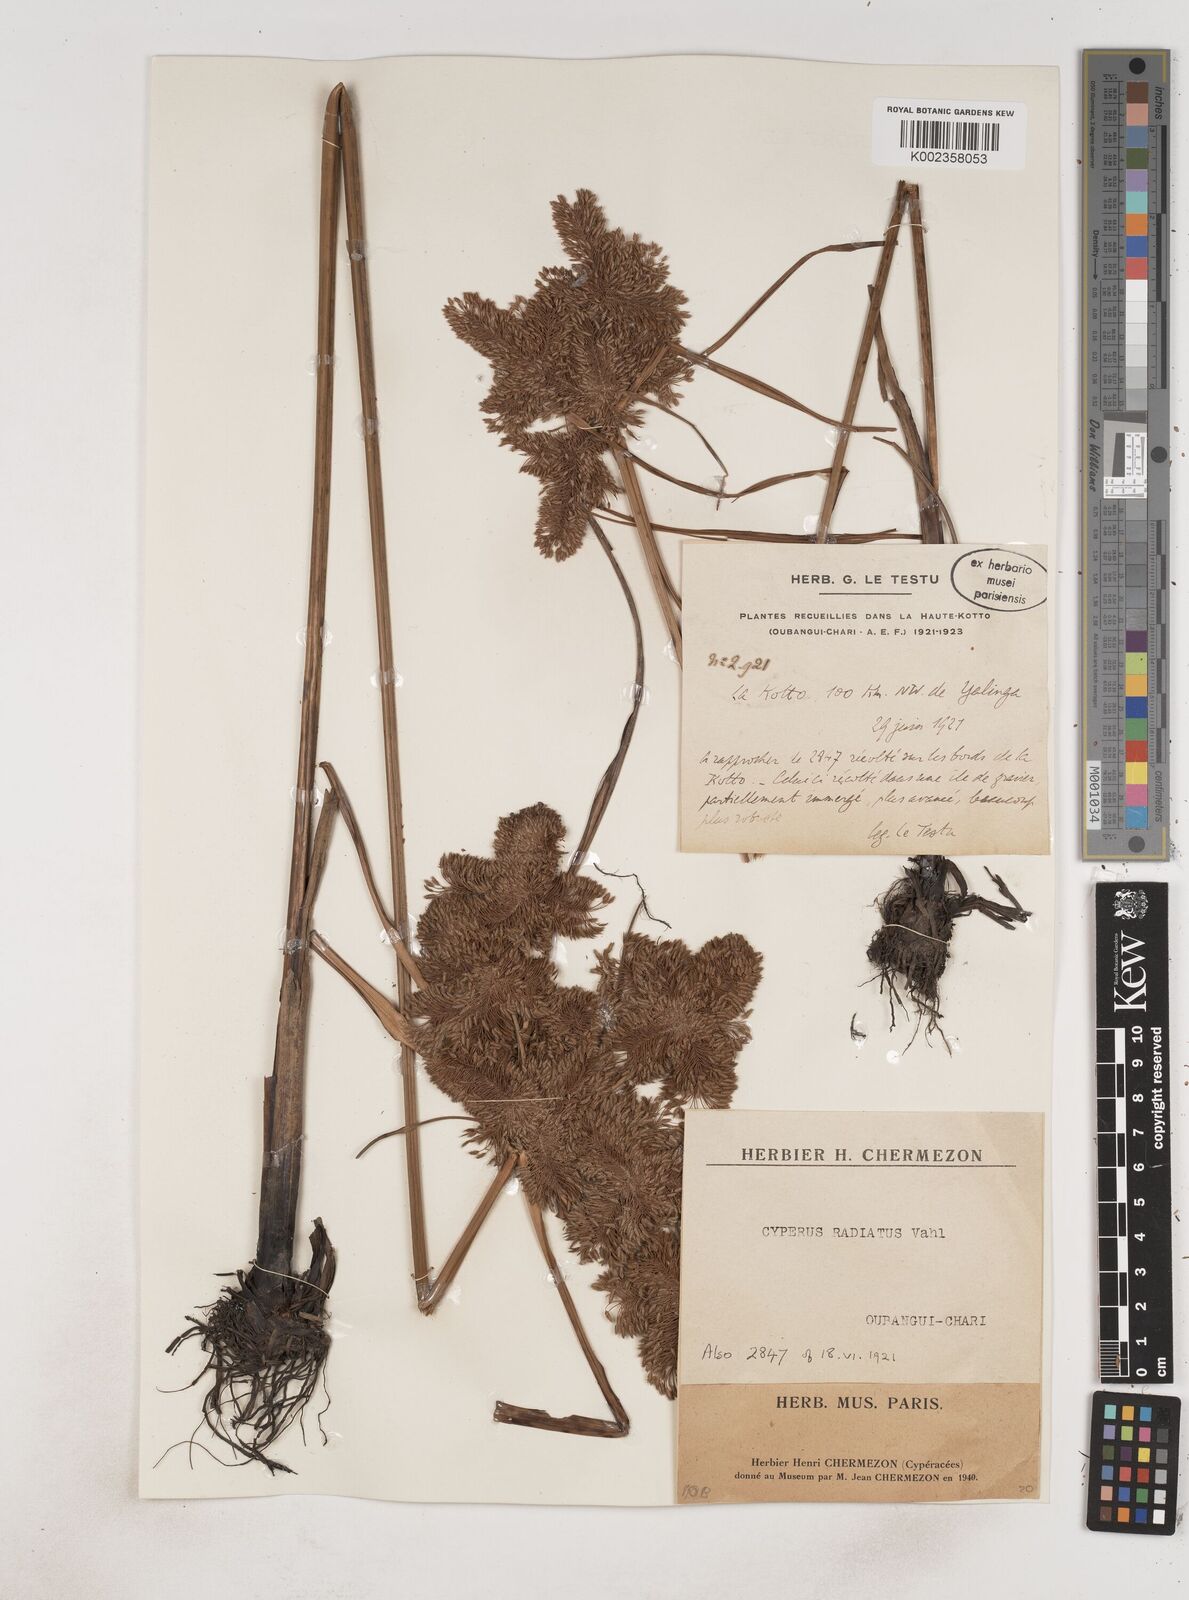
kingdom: Plantae
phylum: Tracheophyta
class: Liliopsida
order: Poales
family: Cyperaceae
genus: Cyperus
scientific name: Cyperus imbricatus
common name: Shingle flatsedge
